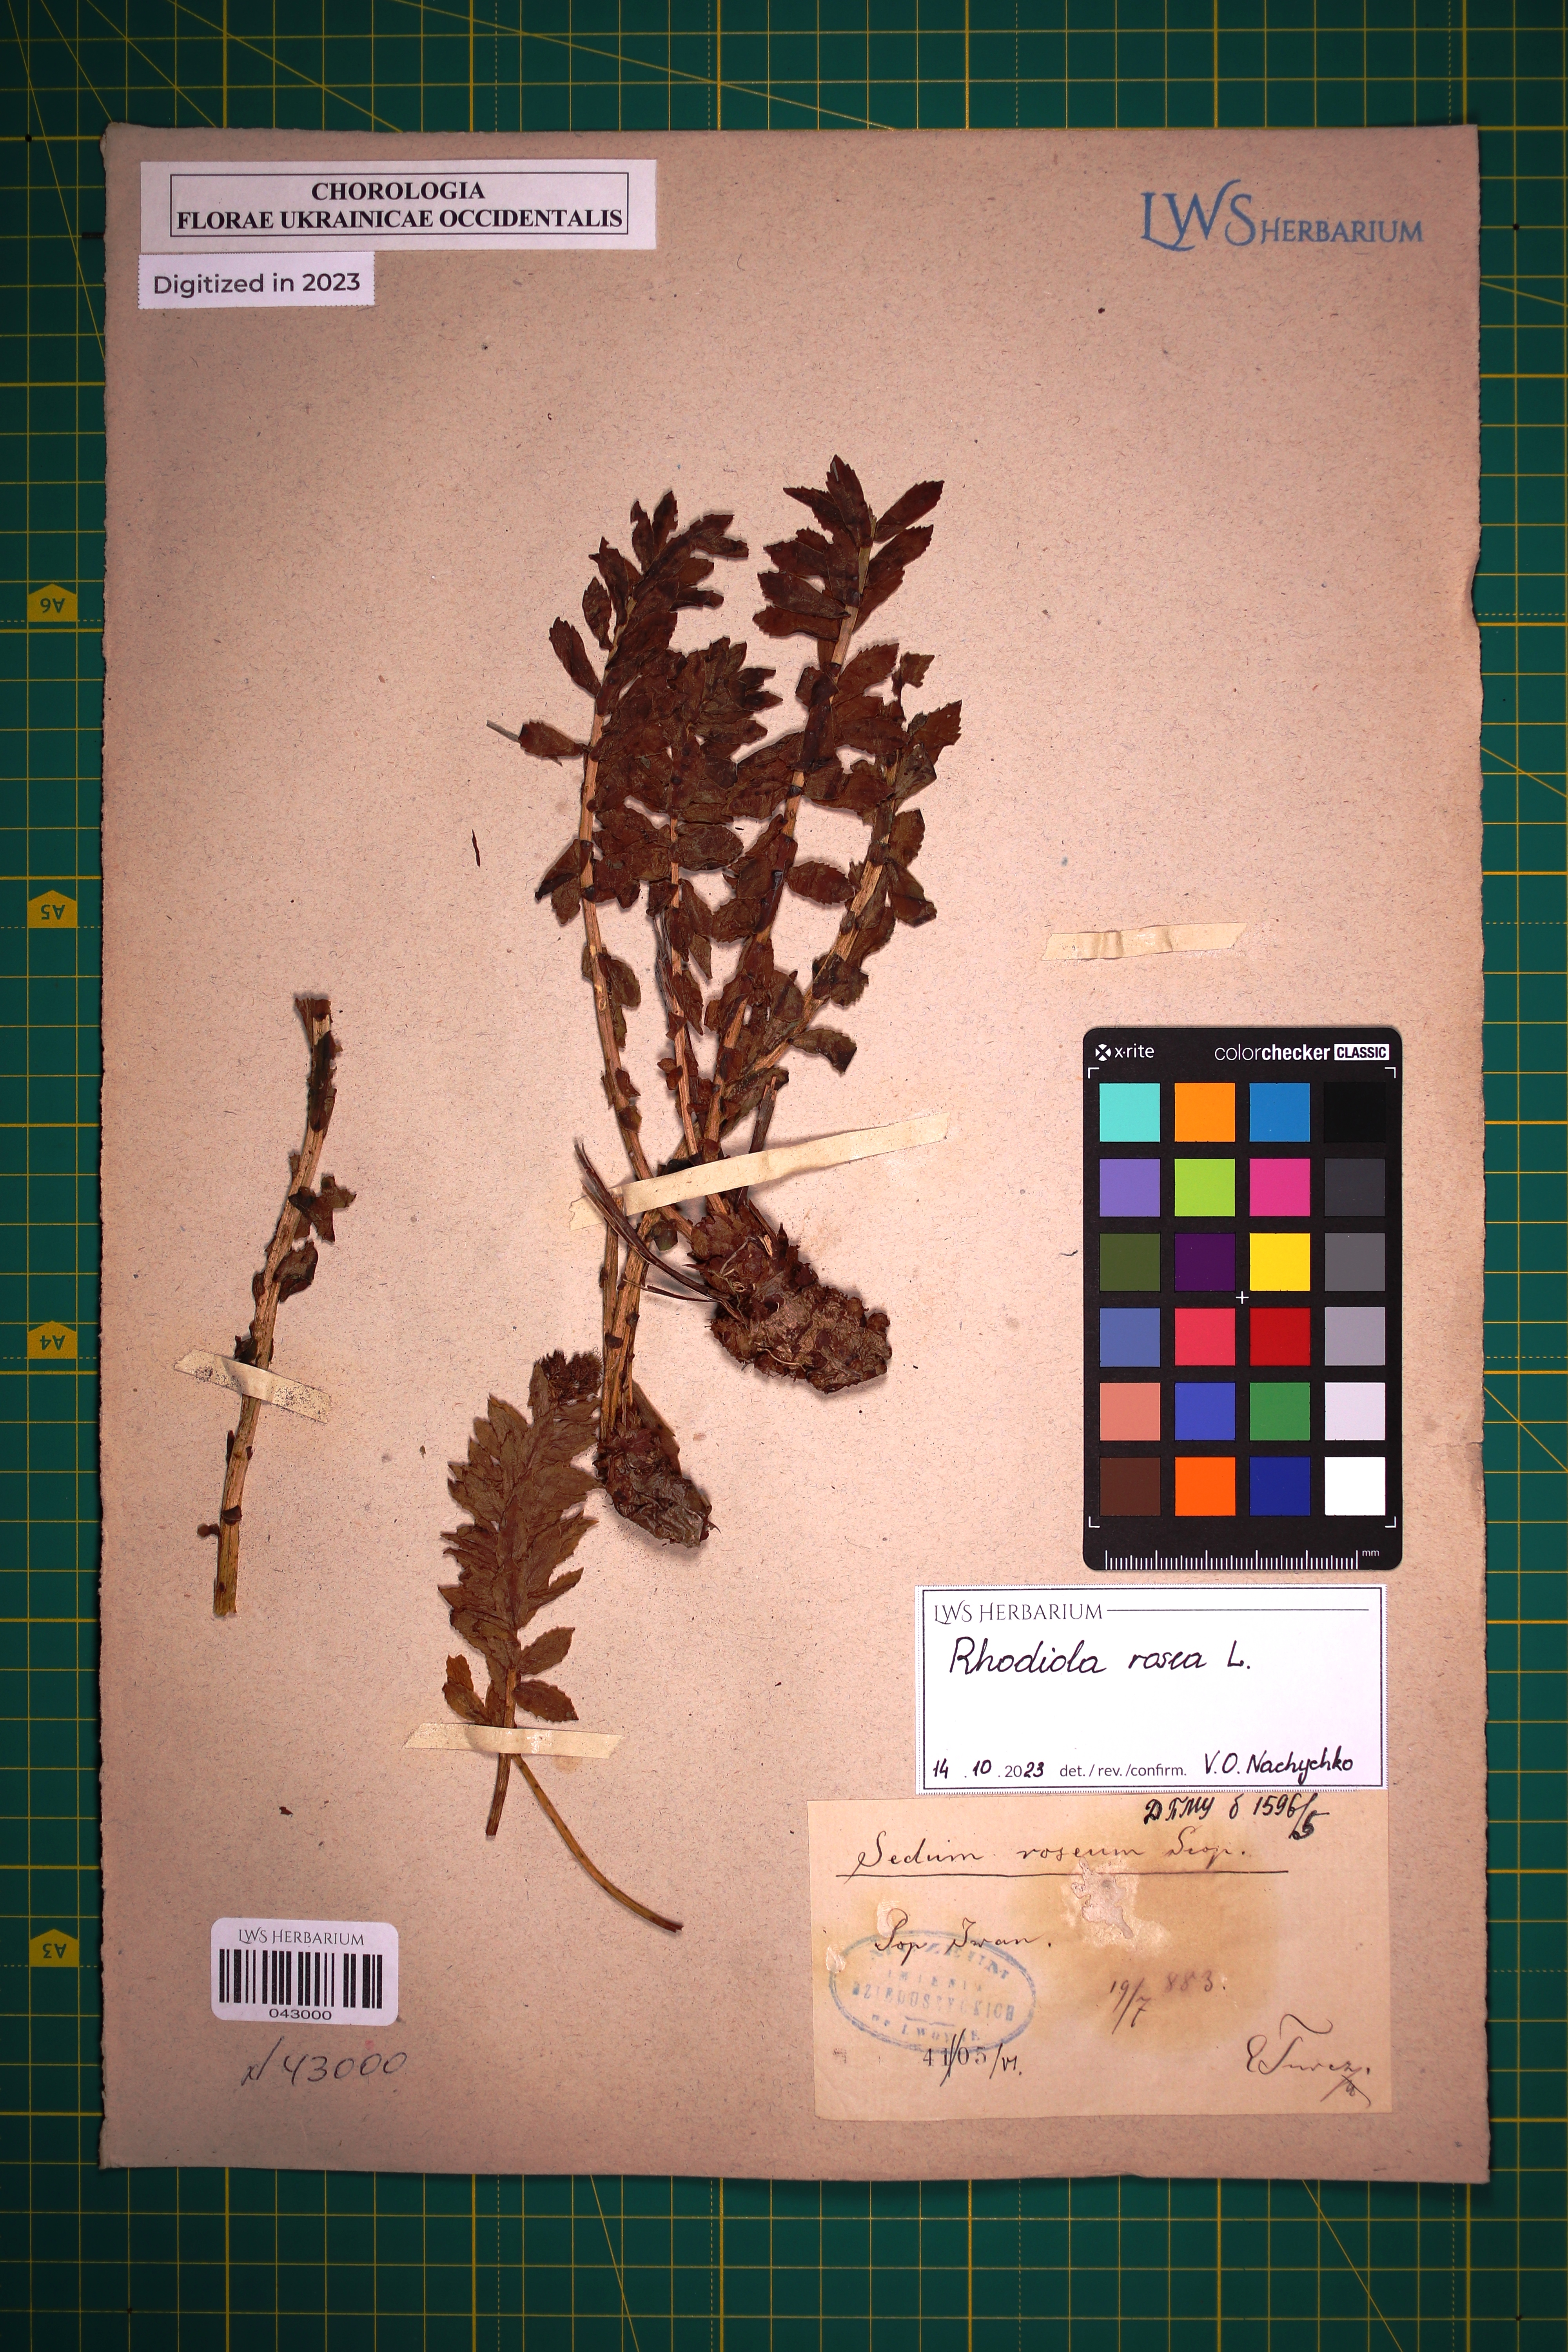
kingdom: Plantae
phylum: Tracheophyta
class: Magnoliopsida
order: Saxifragales
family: Crassulaceae
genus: Rhodiola
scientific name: Rhodiola rosea
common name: Roseroot
